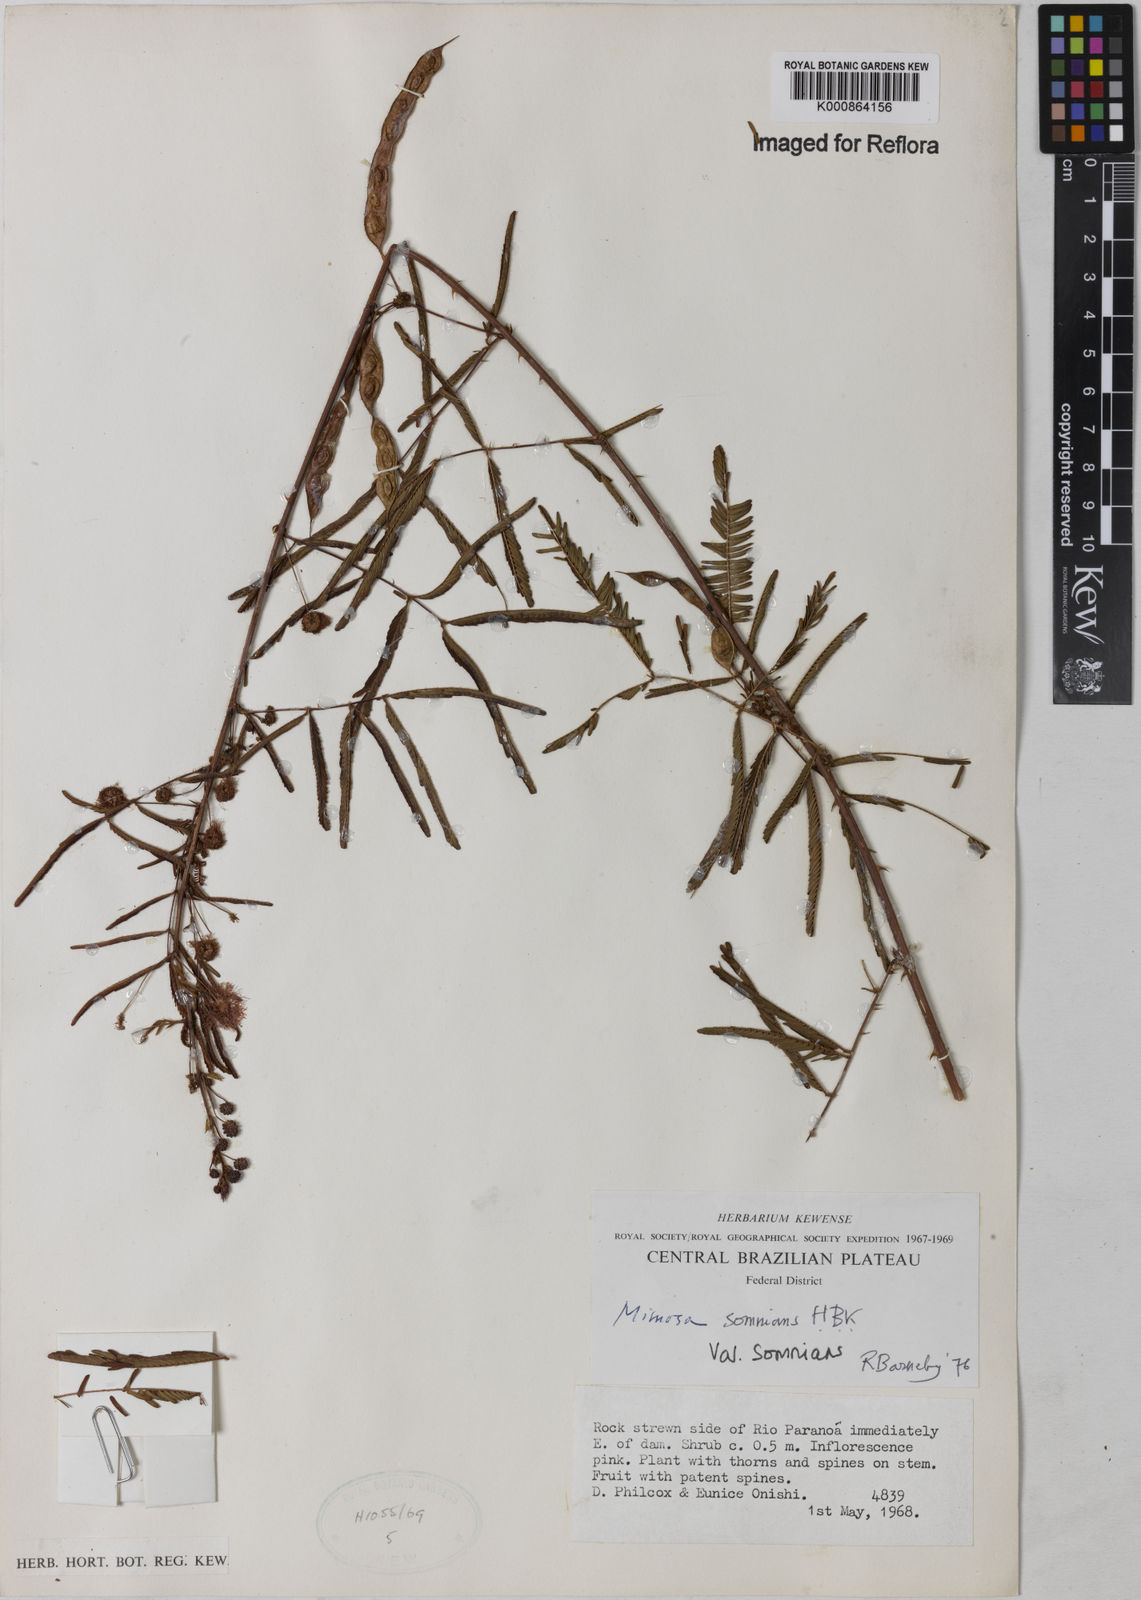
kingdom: Plantae
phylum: Tracheophyta
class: Magnoliopsida
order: Fabales
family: Fabaceae
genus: Mimosa
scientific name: Mimosa somnians
